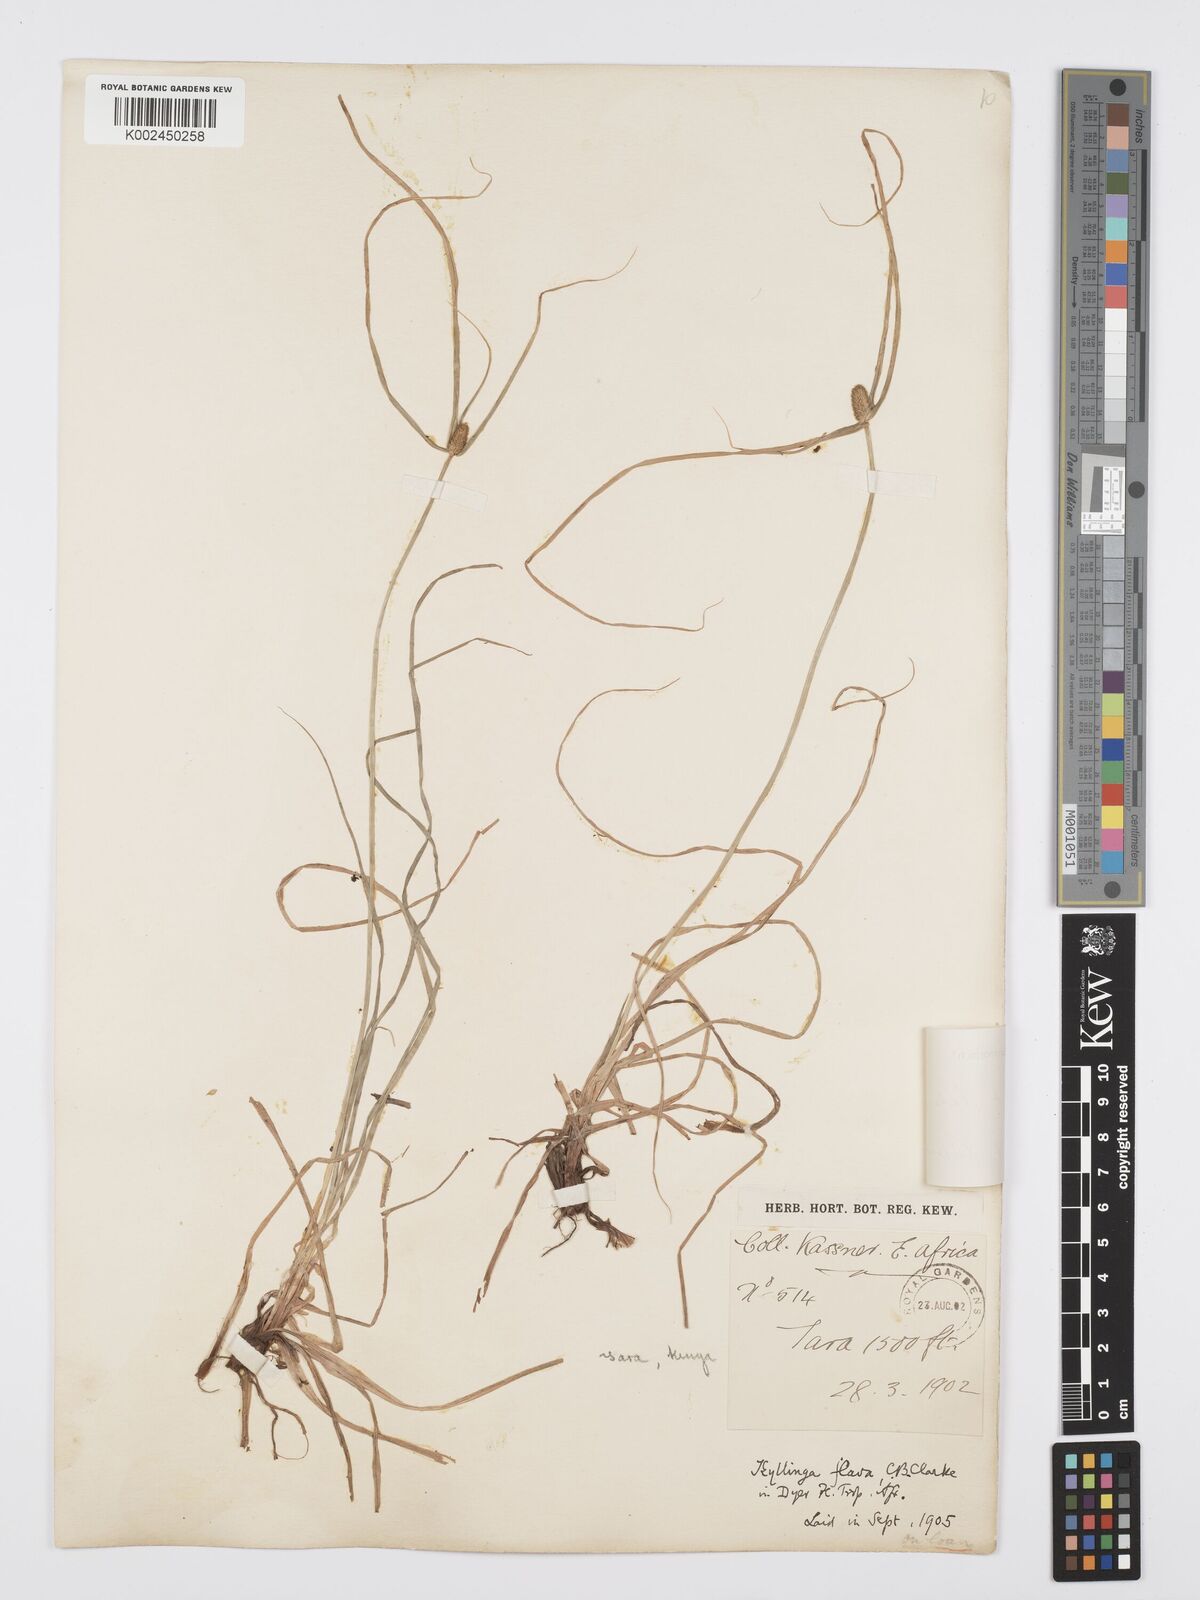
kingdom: Plantae
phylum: Tracheophyta
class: Liliopsida
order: Poales
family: Cyperaceae
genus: Cyperus
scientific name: Cyperus
